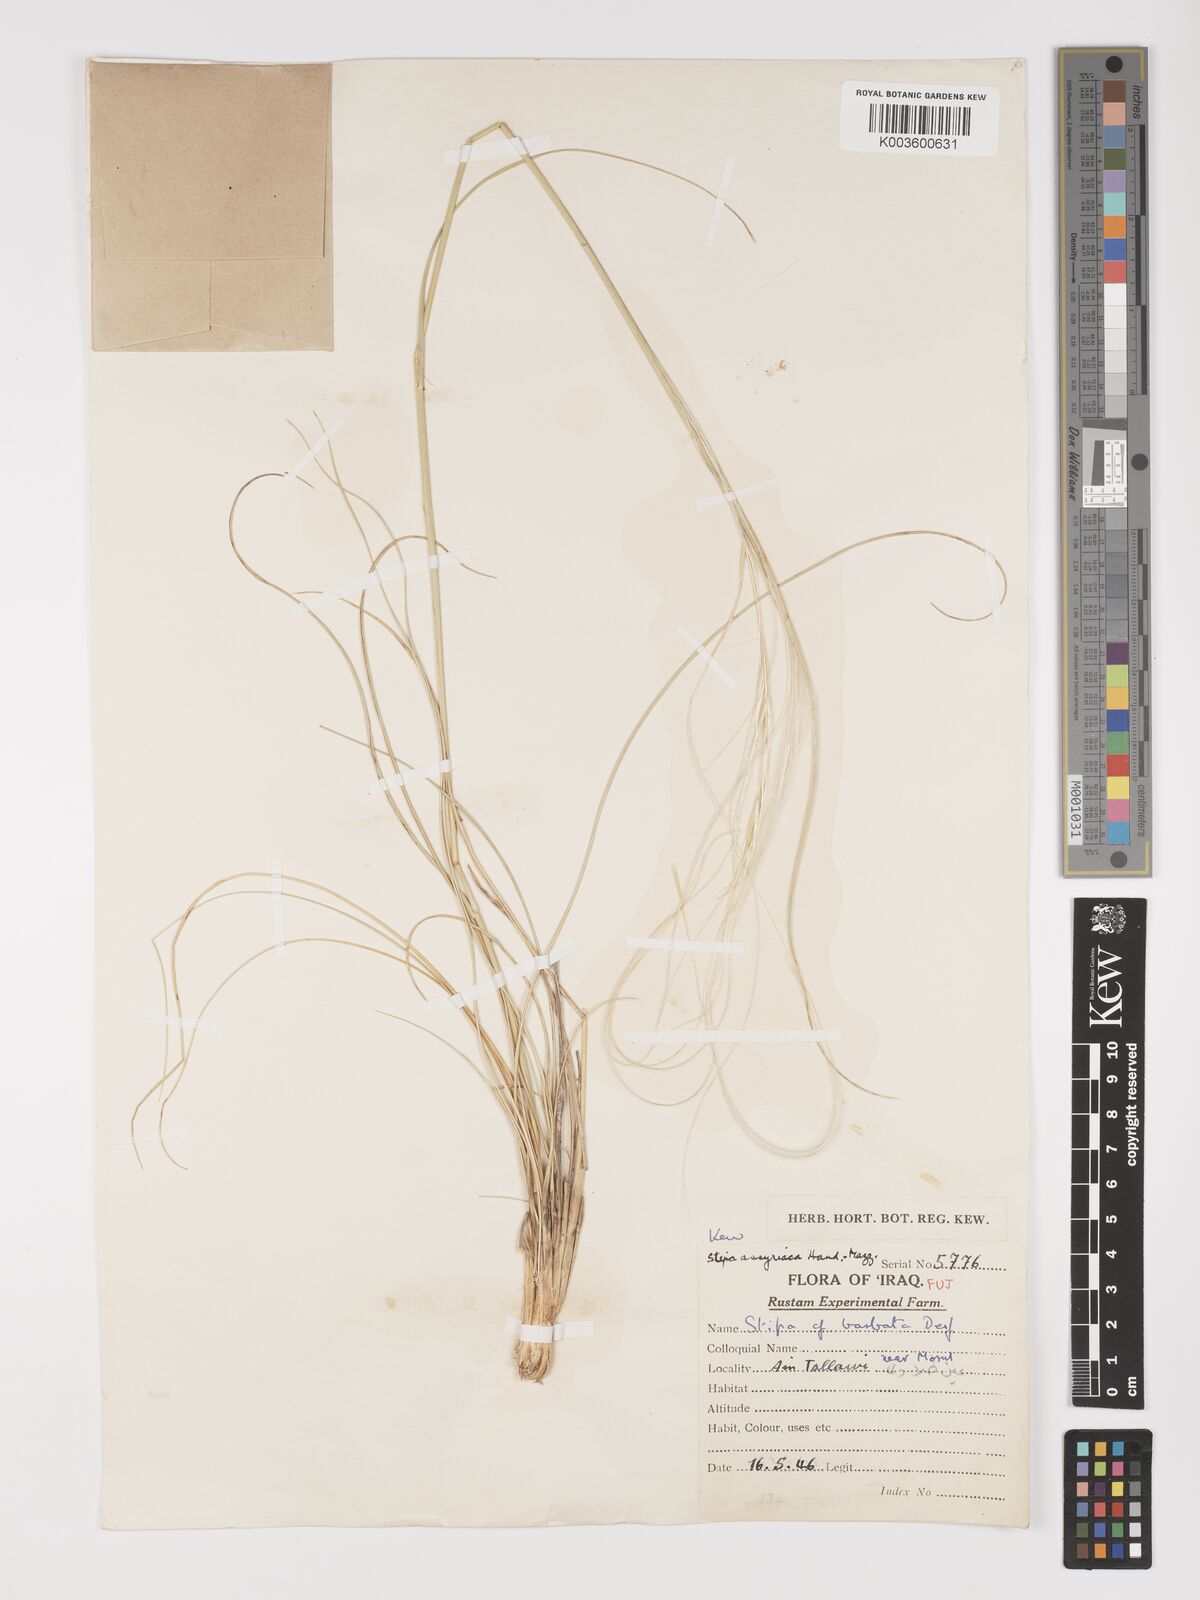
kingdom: Plantae
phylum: Tracheophyta
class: Liliopsida
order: Poales
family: Poaceae
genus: Stipa
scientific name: Stipa hohenackeriana
